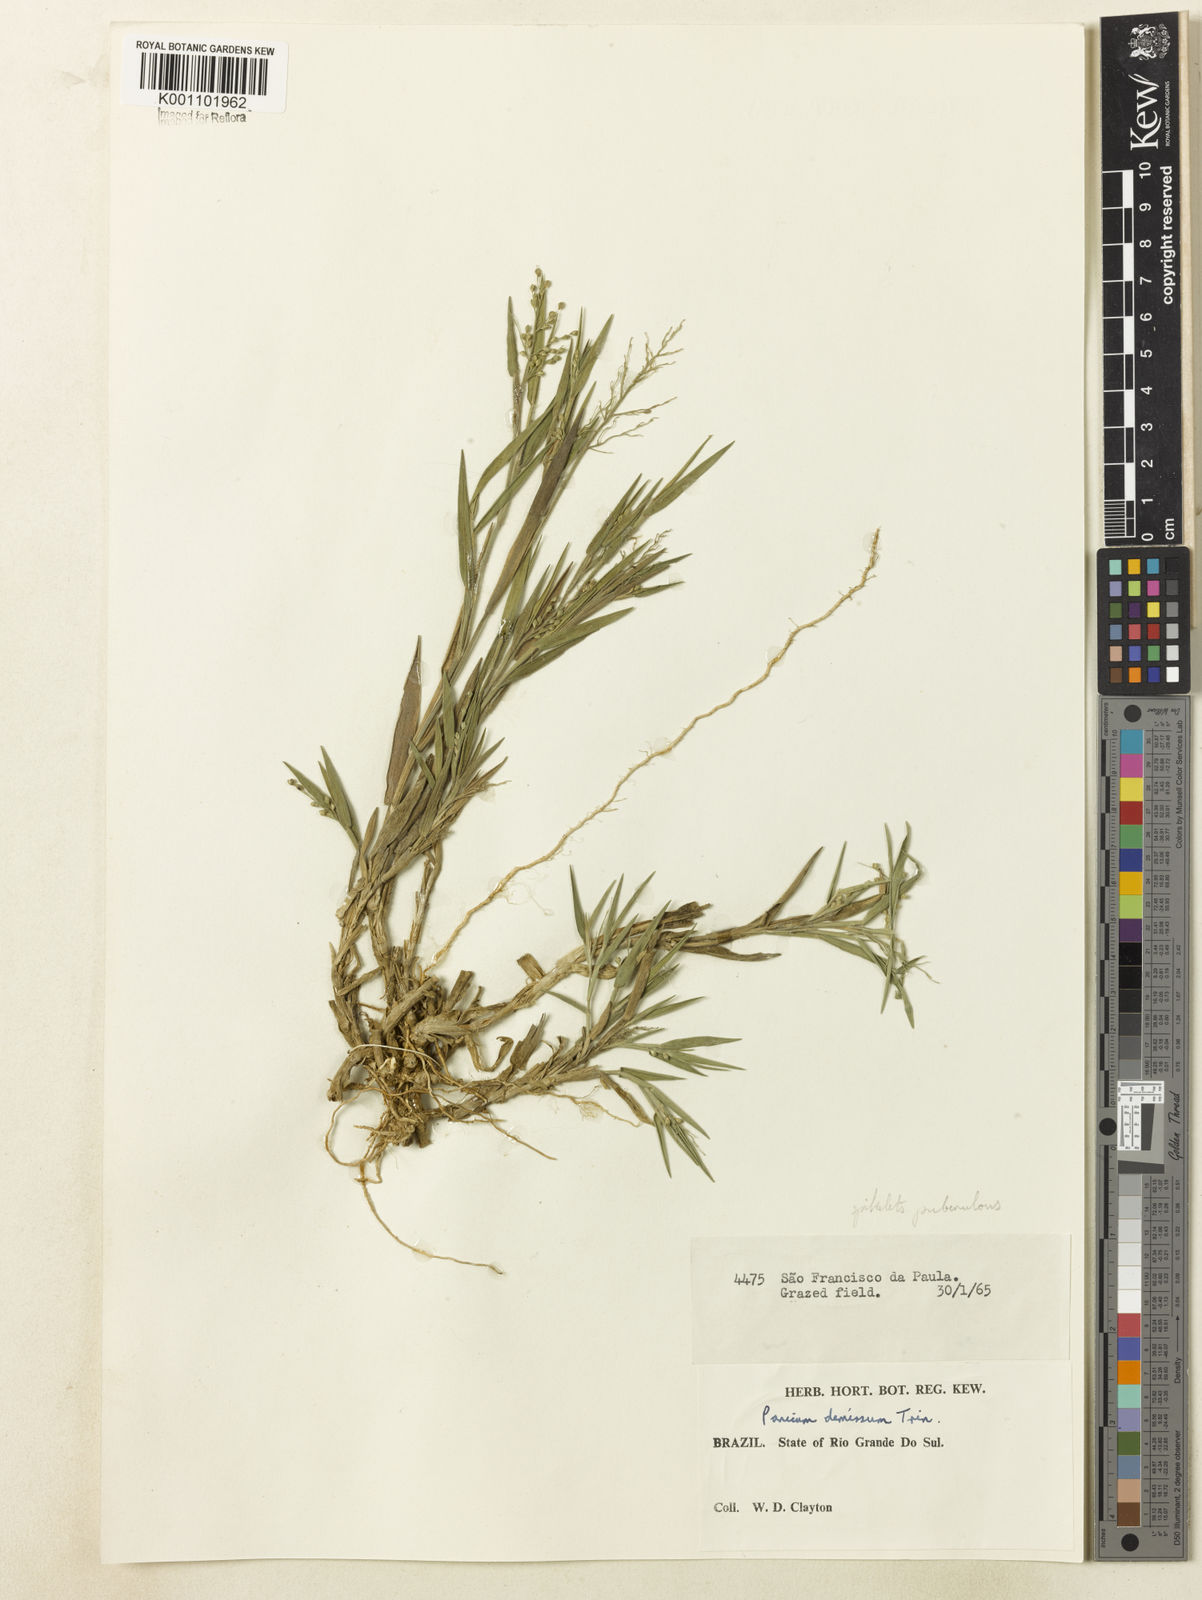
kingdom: Plantae
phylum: Tracheophyta
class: Liliopsida
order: Poales
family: Poaceae
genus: Dichanthelium
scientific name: Dichanthelium sabulorum
